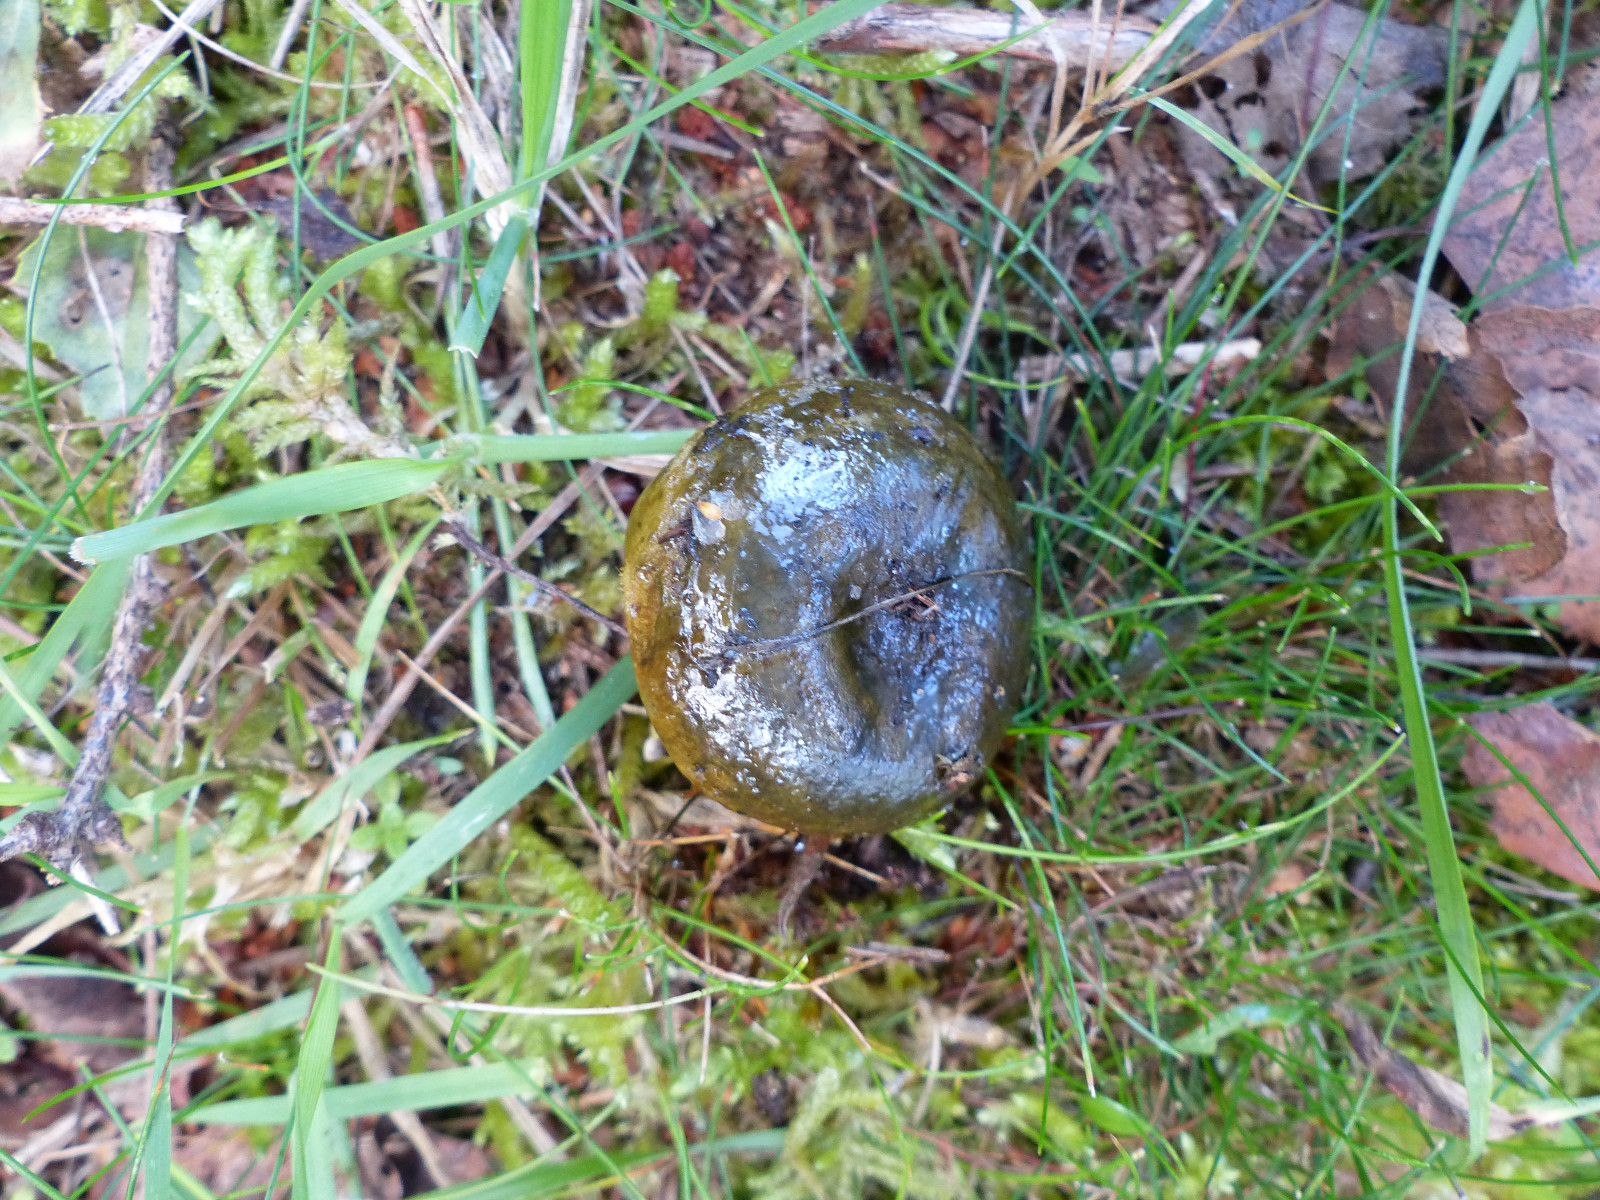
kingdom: Fungi
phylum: Basidiomycota
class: Agaricomycetes
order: Russulales
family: Russulaceae
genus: Lactarius
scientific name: Lactarius necator
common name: manddraber-mælkehat
